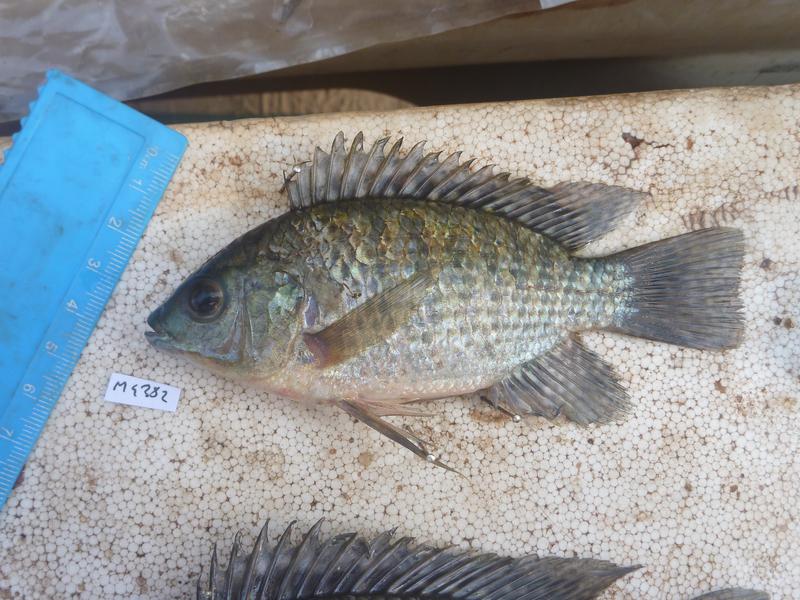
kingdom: Animalia
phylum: Chordata
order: Perciformes
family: Cichlidae
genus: Oreochromis
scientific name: Oreochromis leucostictus
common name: Blue spotted tilapia
